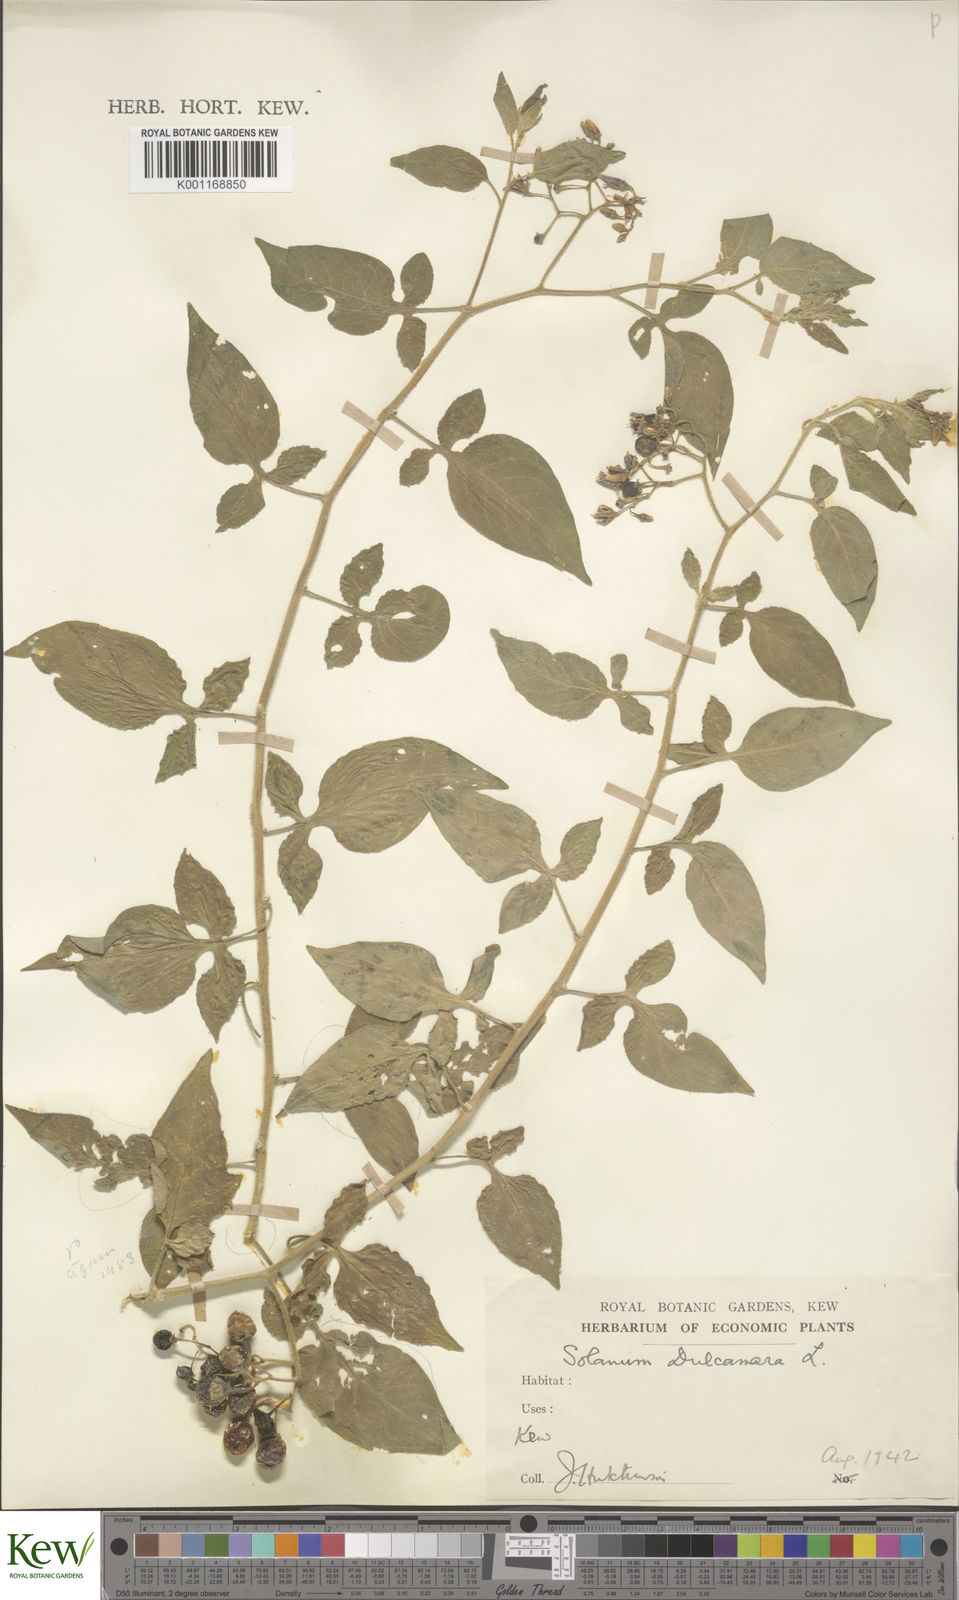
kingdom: Plantae
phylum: Tracheophyta
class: Magnoliopsida
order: Solanales
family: Solanaceae
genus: Solanum
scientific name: Solanum dulcamara
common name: Climbing nightshade
